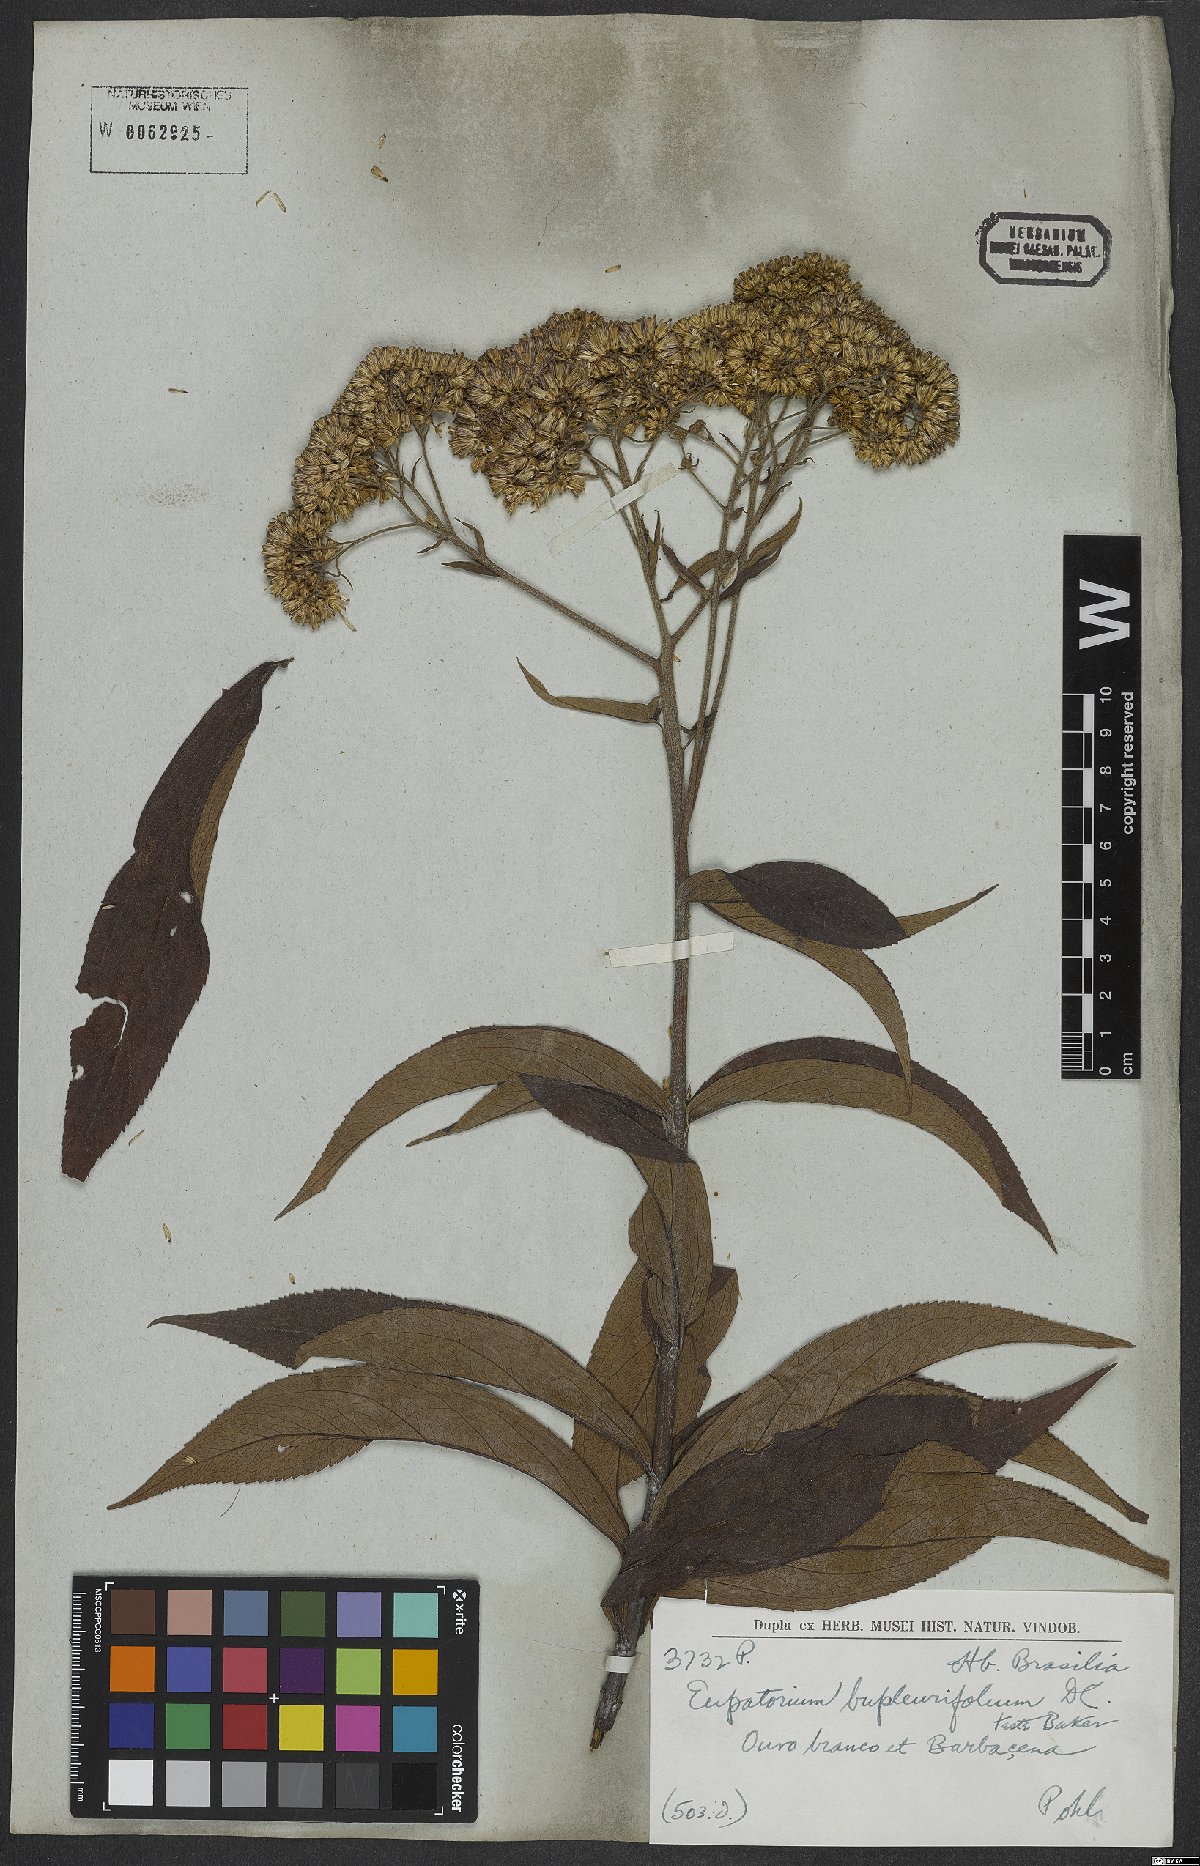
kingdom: Plantae
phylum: Tracheophyta
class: Magnoliopsida
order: Asterales
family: Asteraceae
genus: Campovassouria
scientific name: Campovassouria cruciata
